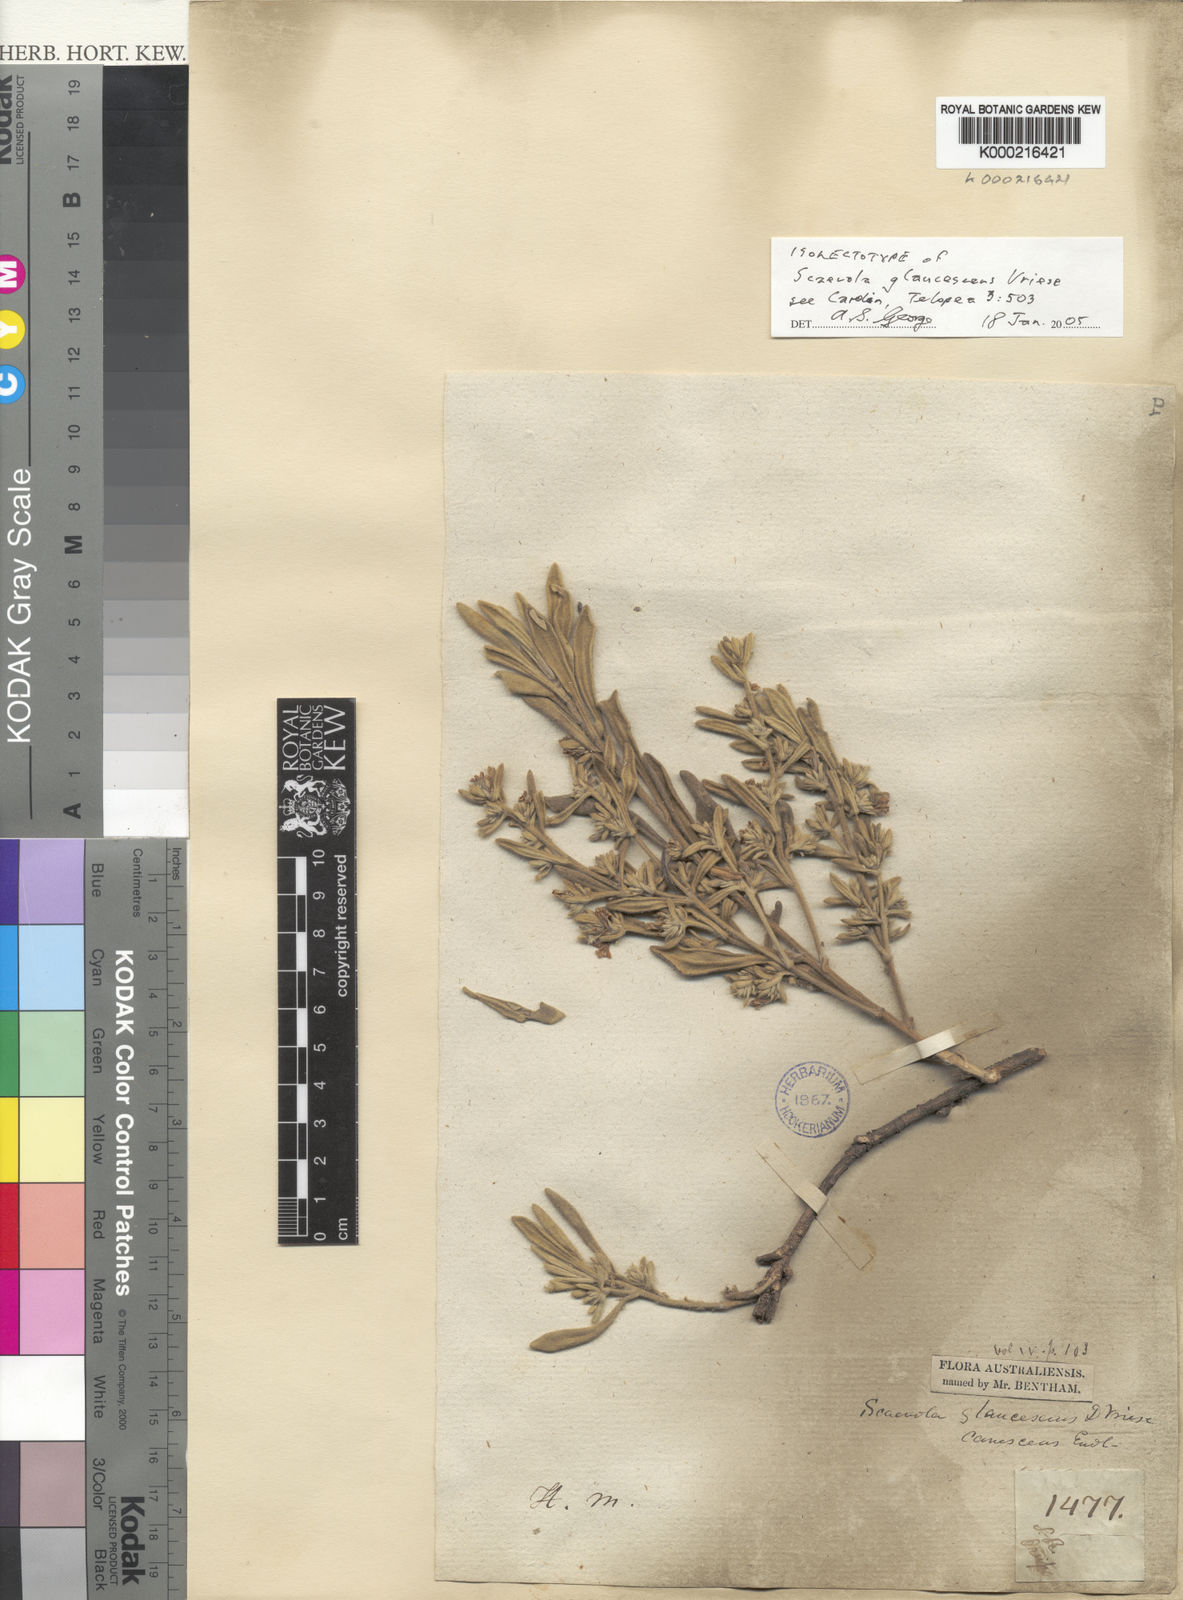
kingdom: Plantae
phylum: Tracheophyta
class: Magnoliopsida
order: Asterales
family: Goodeniaceae
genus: Scaevola
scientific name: Scaevola canescens
